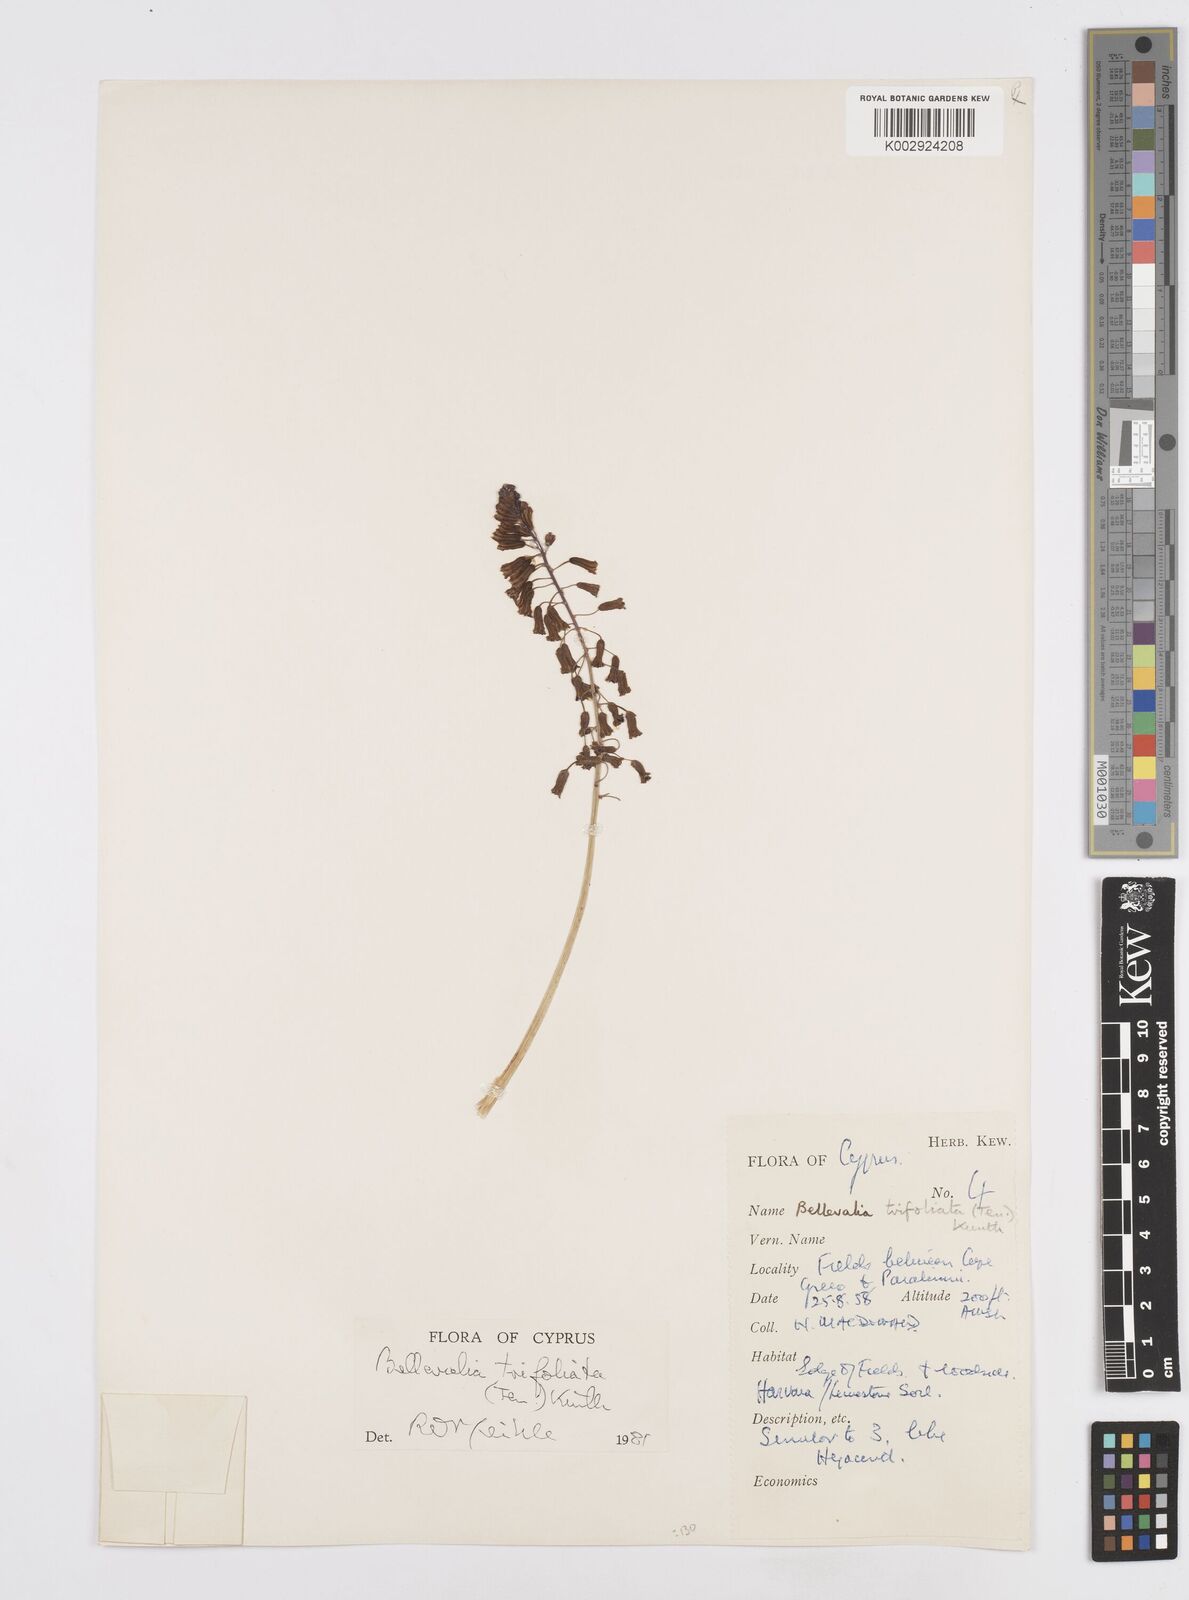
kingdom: Plantae
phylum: Tracheophyta
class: Liliopsida
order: Asparagales
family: Asparagaceae
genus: Bellevalia
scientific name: Bellevalia trifoliata
